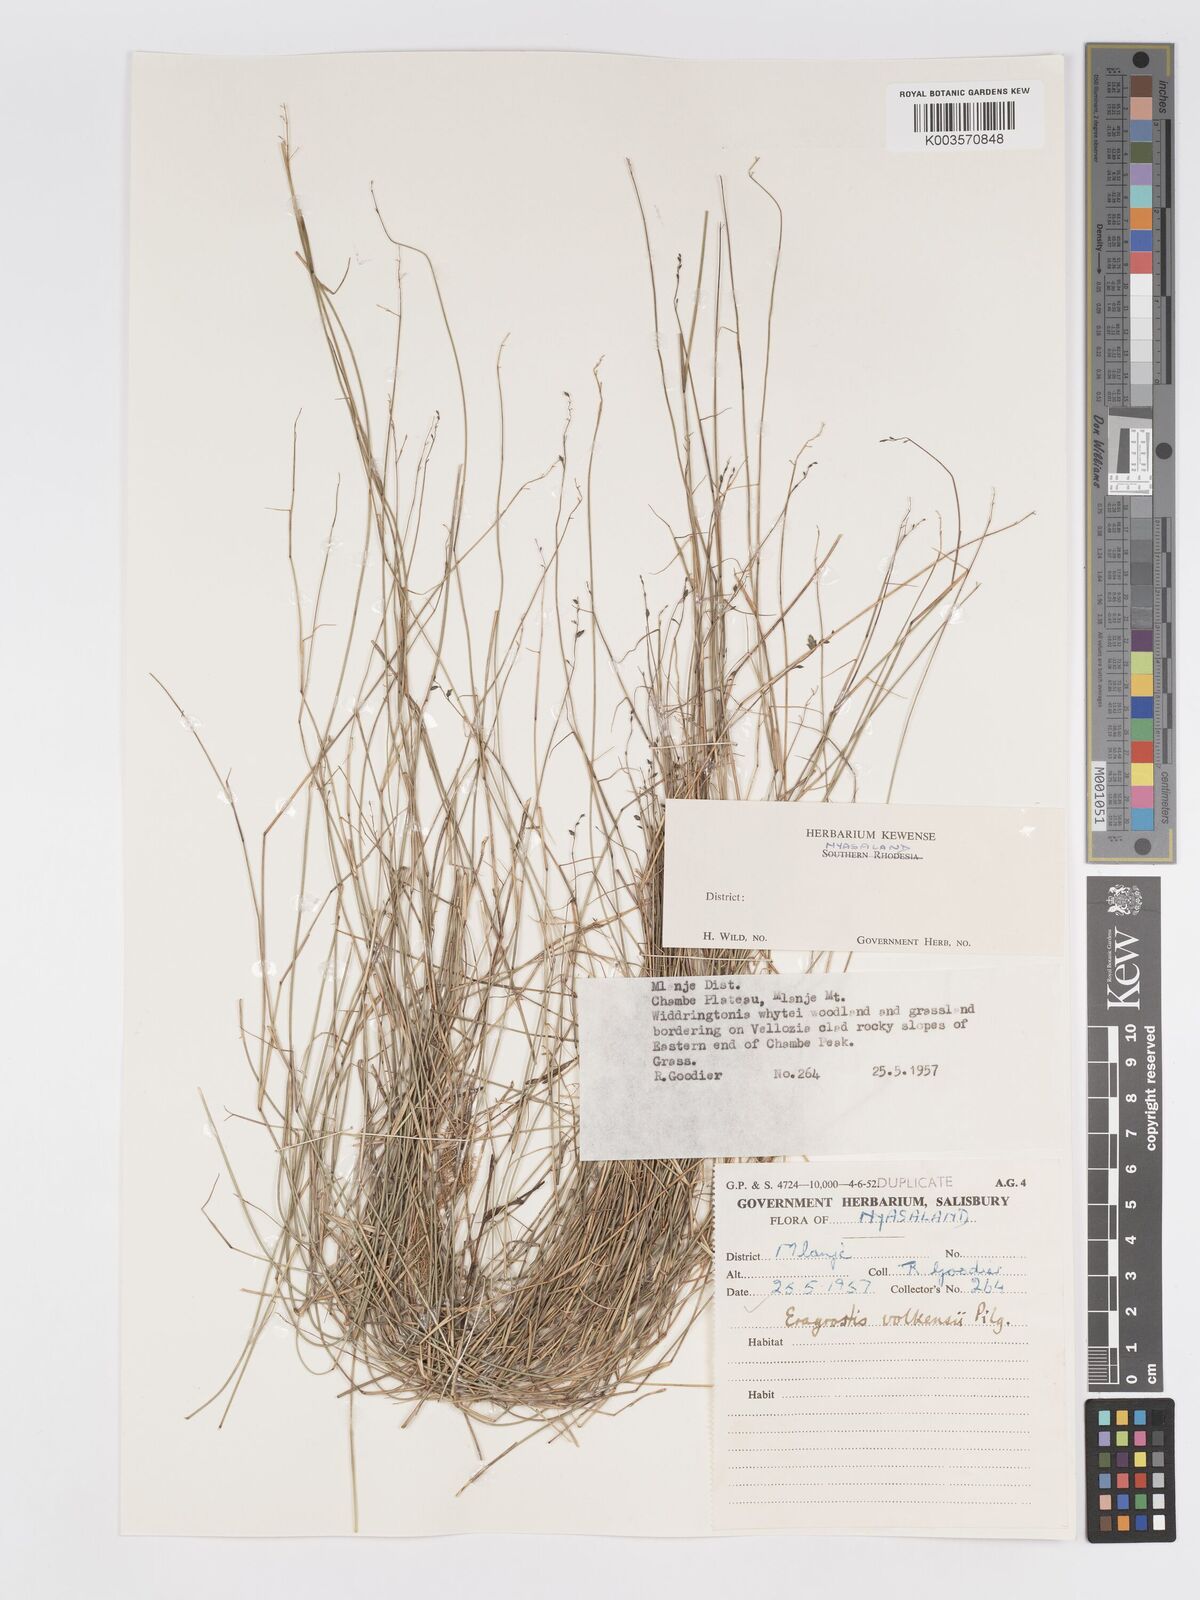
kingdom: Plantae
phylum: Tracheophyta
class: Liliopsida
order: Poales
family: Poaceae
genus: Eragrostis
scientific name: Eragrostis volkensii
